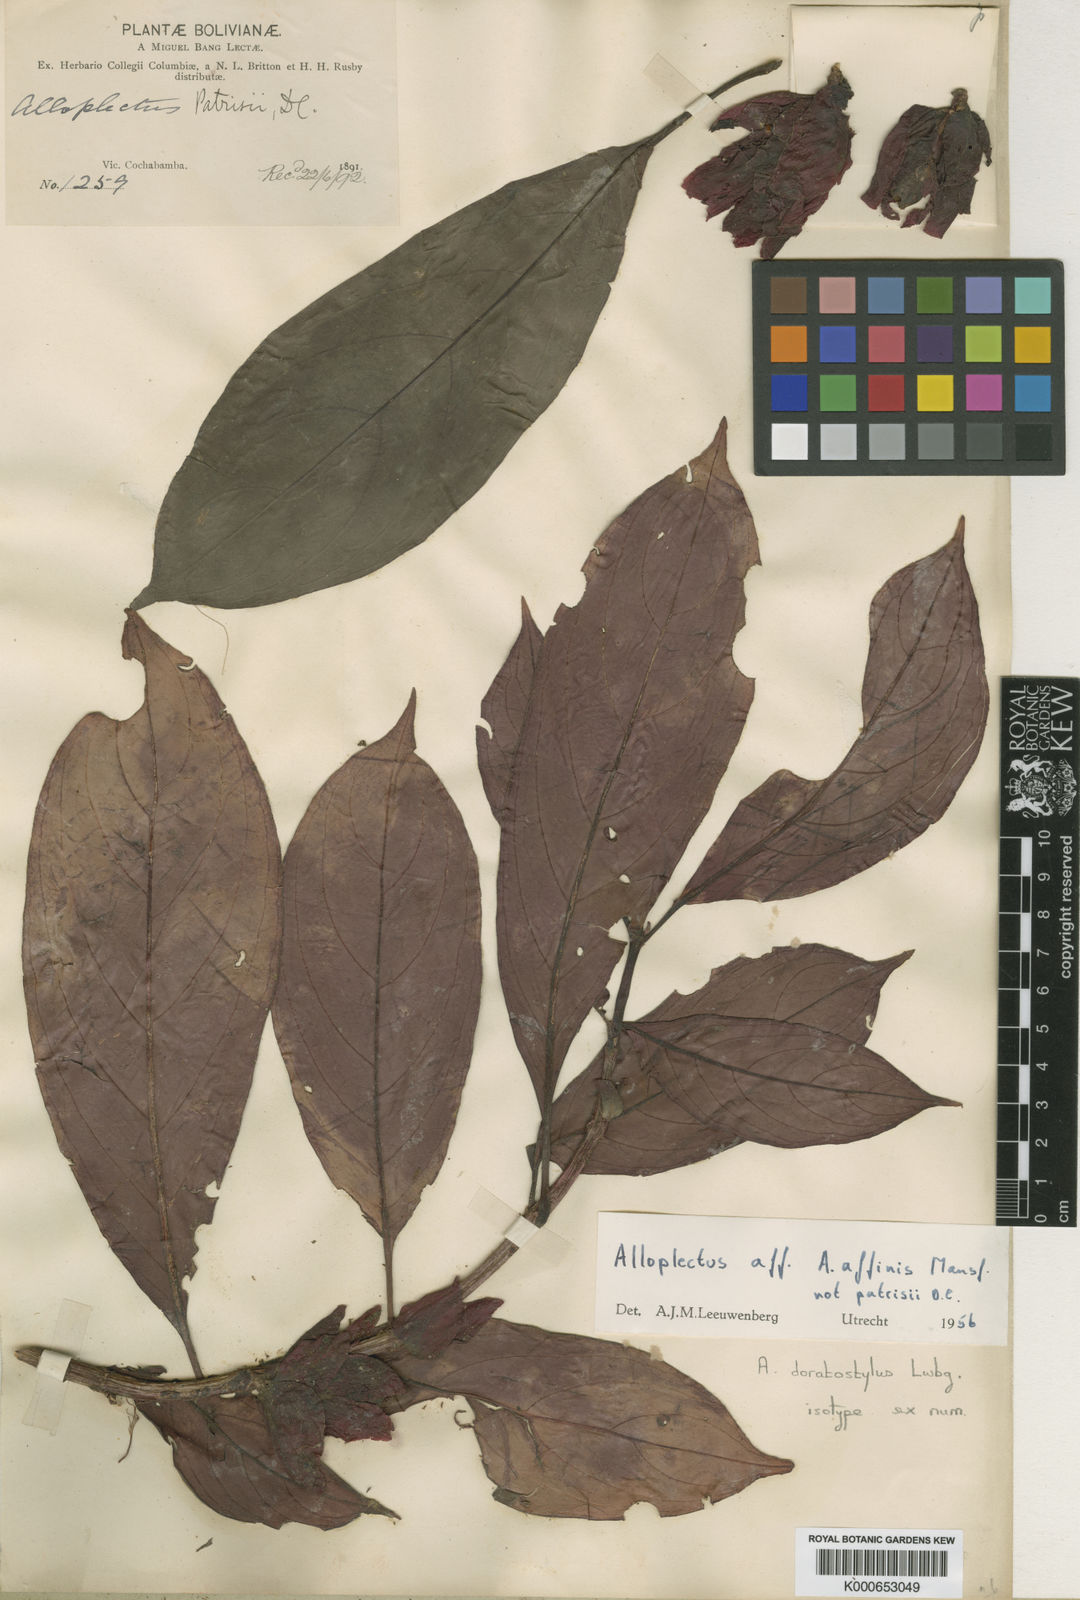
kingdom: Plantae
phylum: Tracheophyta
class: Magnoliopsida
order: Lamiales
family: Gesneriaceae
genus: Drymonia
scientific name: Drymonia doratostyla
